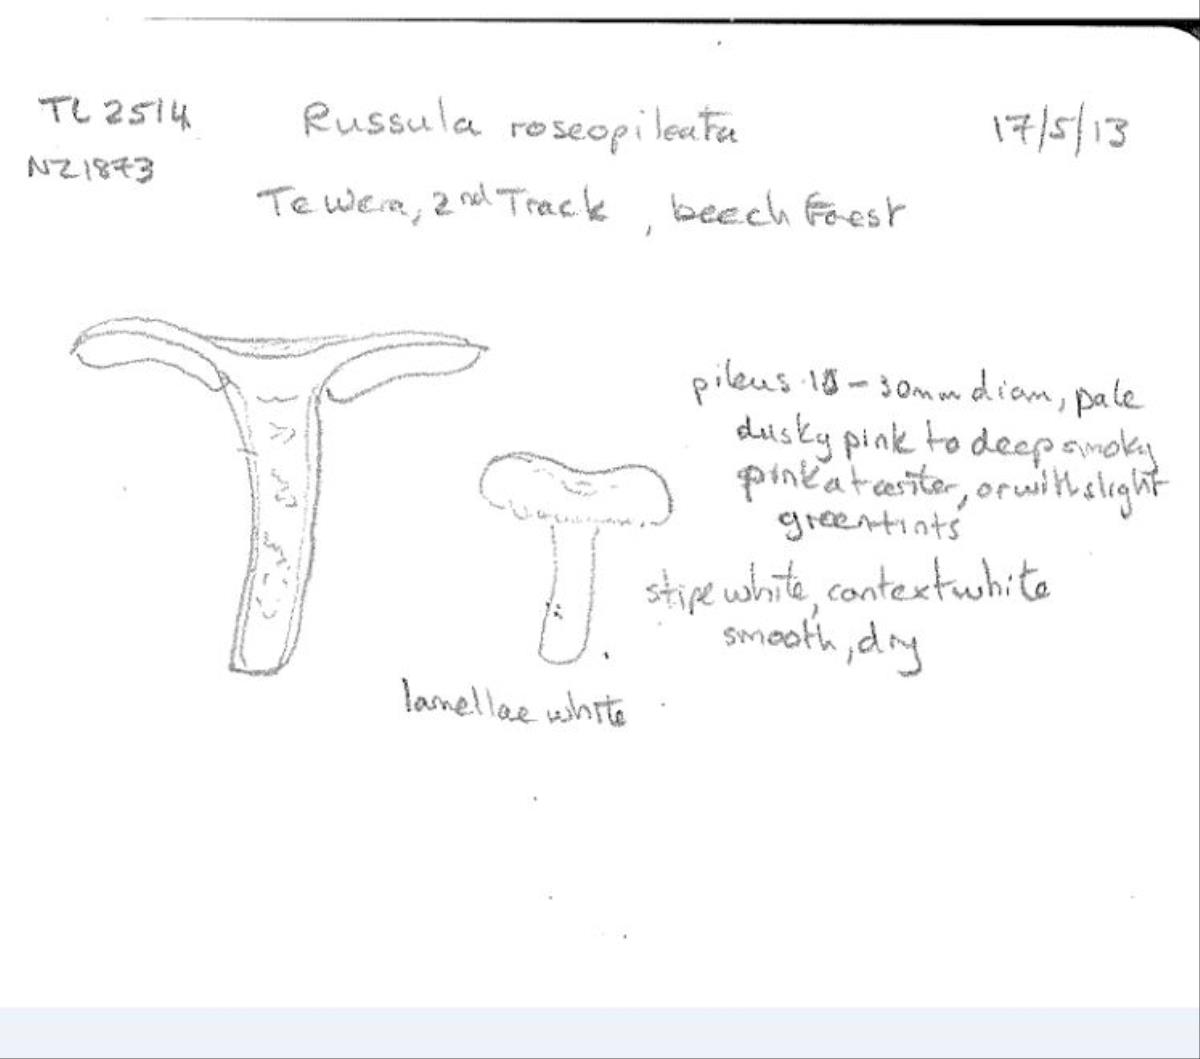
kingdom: Fungi
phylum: Basidiomycota
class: Agaricomycetes
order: Russulales
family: Russulaceae
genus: Russula
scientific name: Russula roseopileata
